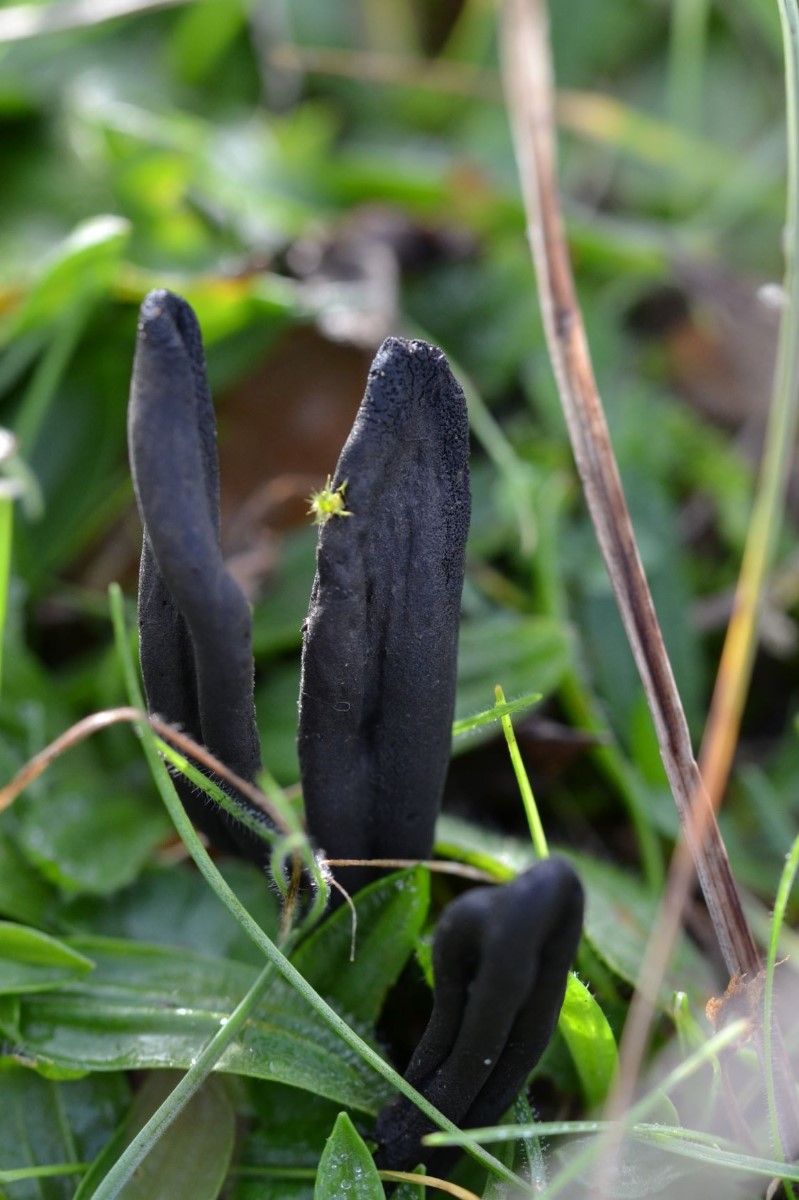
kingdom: Fungi
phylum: Ascomycota
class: Geoglossomycetes
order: Geoglossales
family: Geoglossaceae
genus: Hemileucoglossum
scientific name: Hemileucoglossum elongatum
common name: småsporet jordtunge
